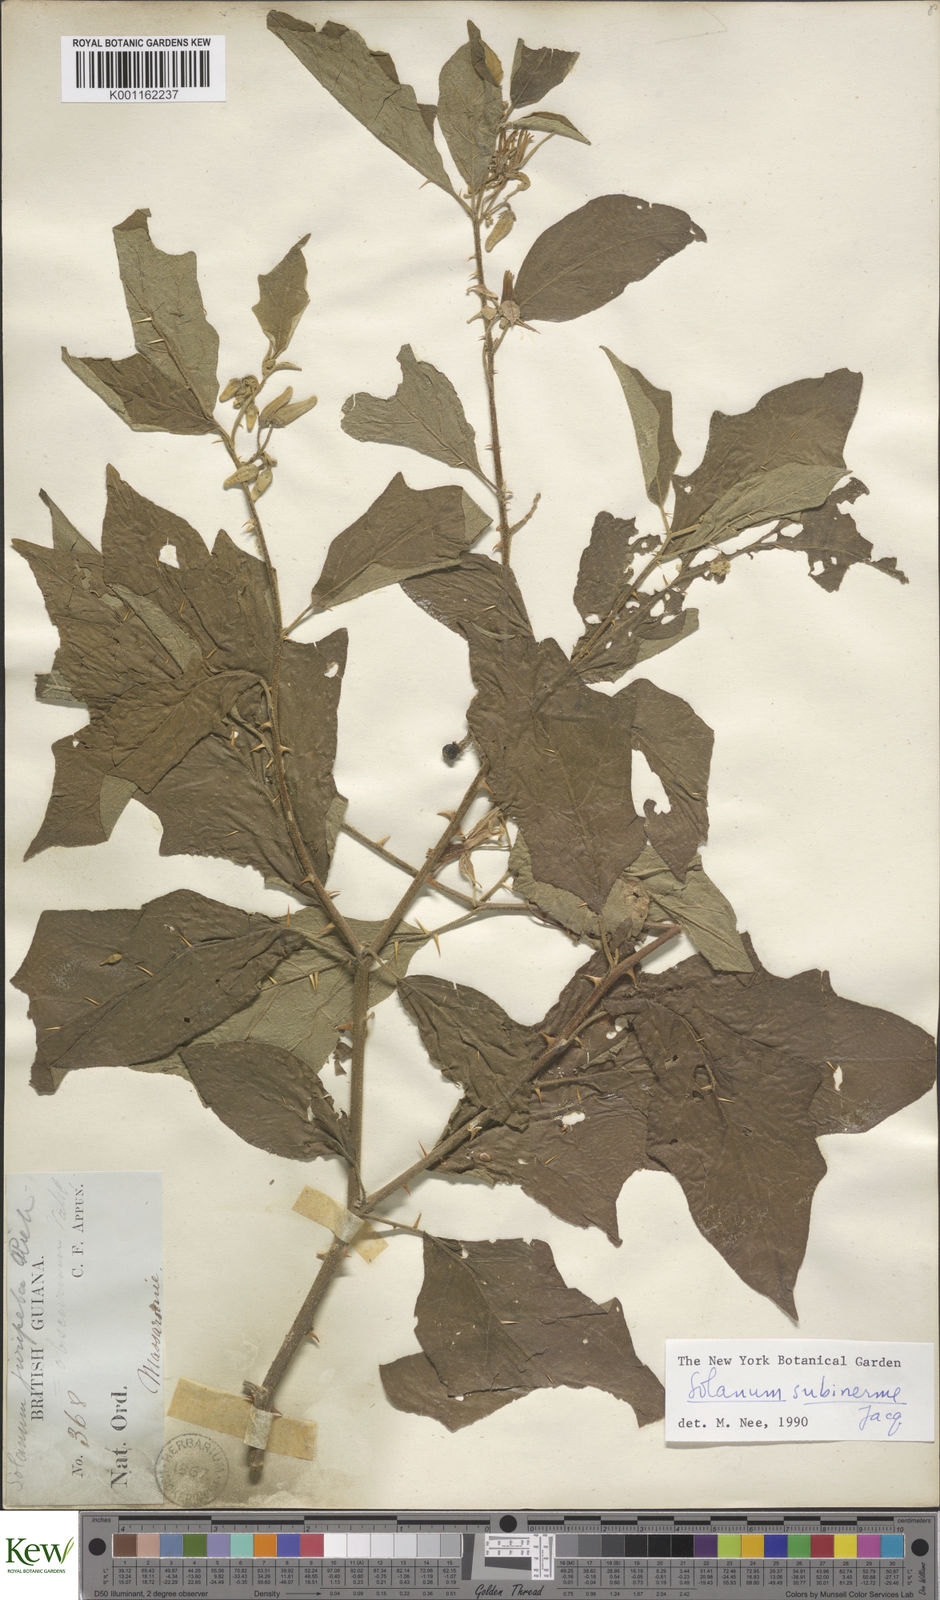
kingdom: Plantae
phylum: Tracheophyta
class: Magnoliopsida
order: Solanales
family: Solanaceae
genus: Solanum
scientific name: Solanum subinerme
